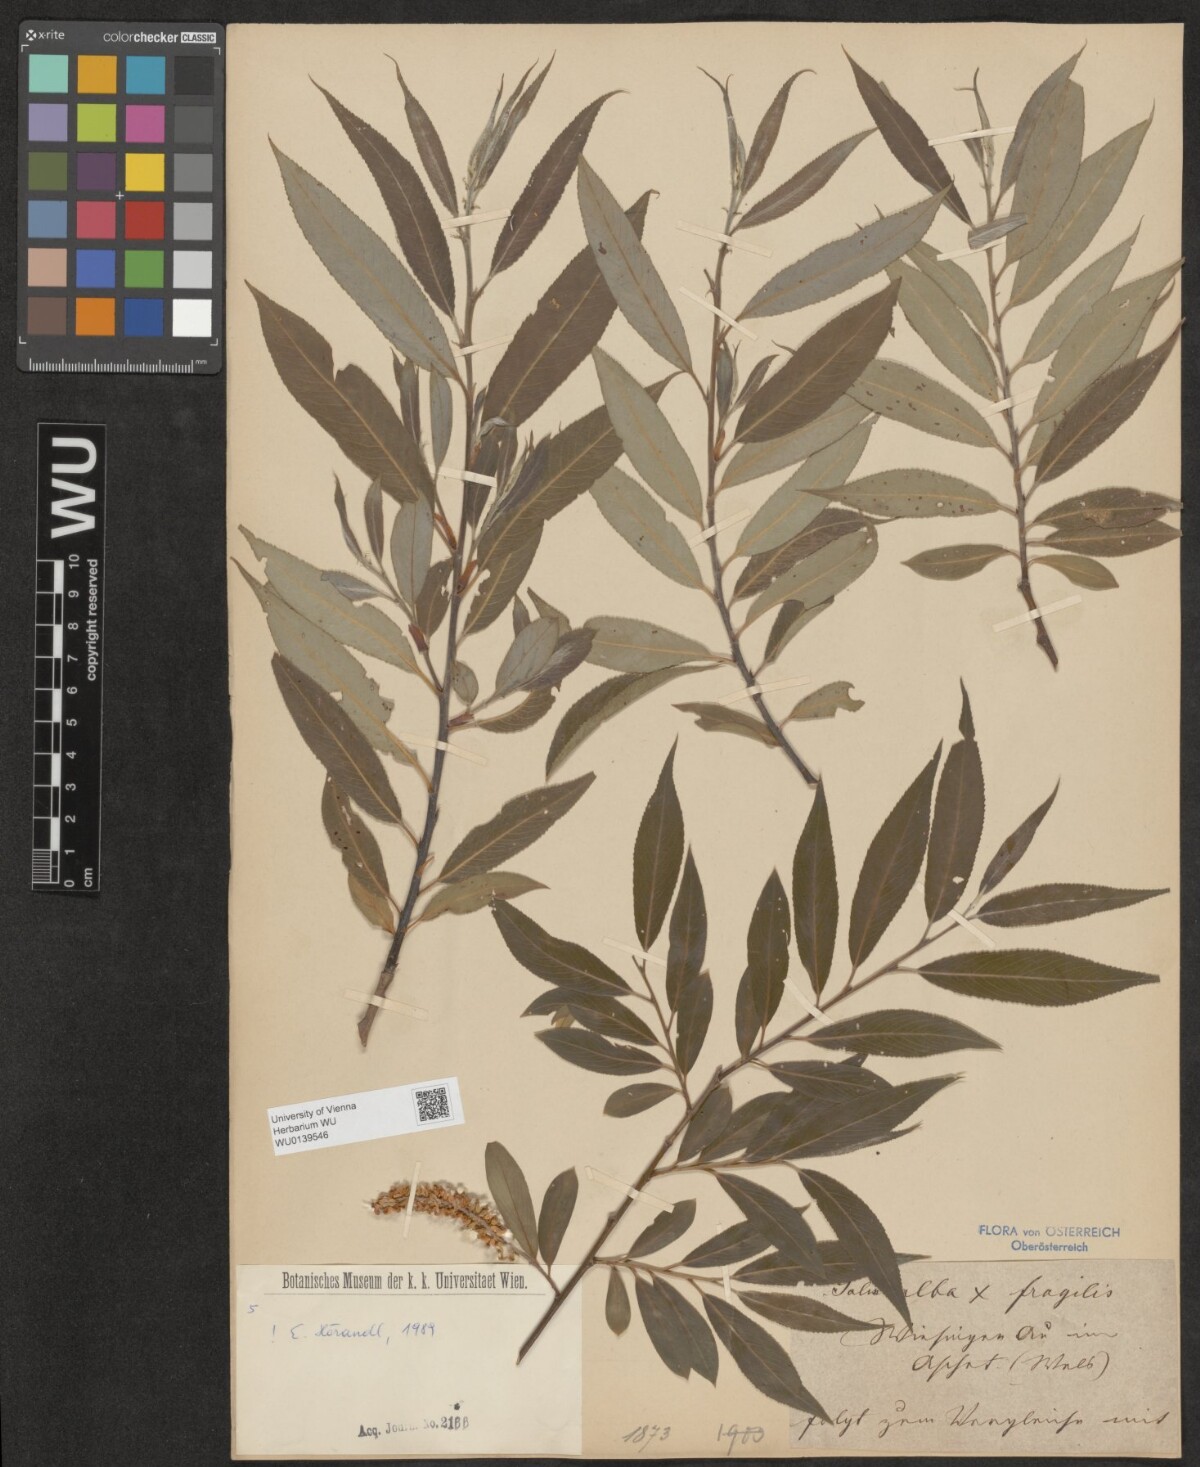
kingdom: Plantae
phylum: Tracheophyta
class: Magnoliopsida
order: Malpighiales
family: Salicaceae
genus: Salix
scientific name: Salix rubens
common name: Hybrid crack willow
